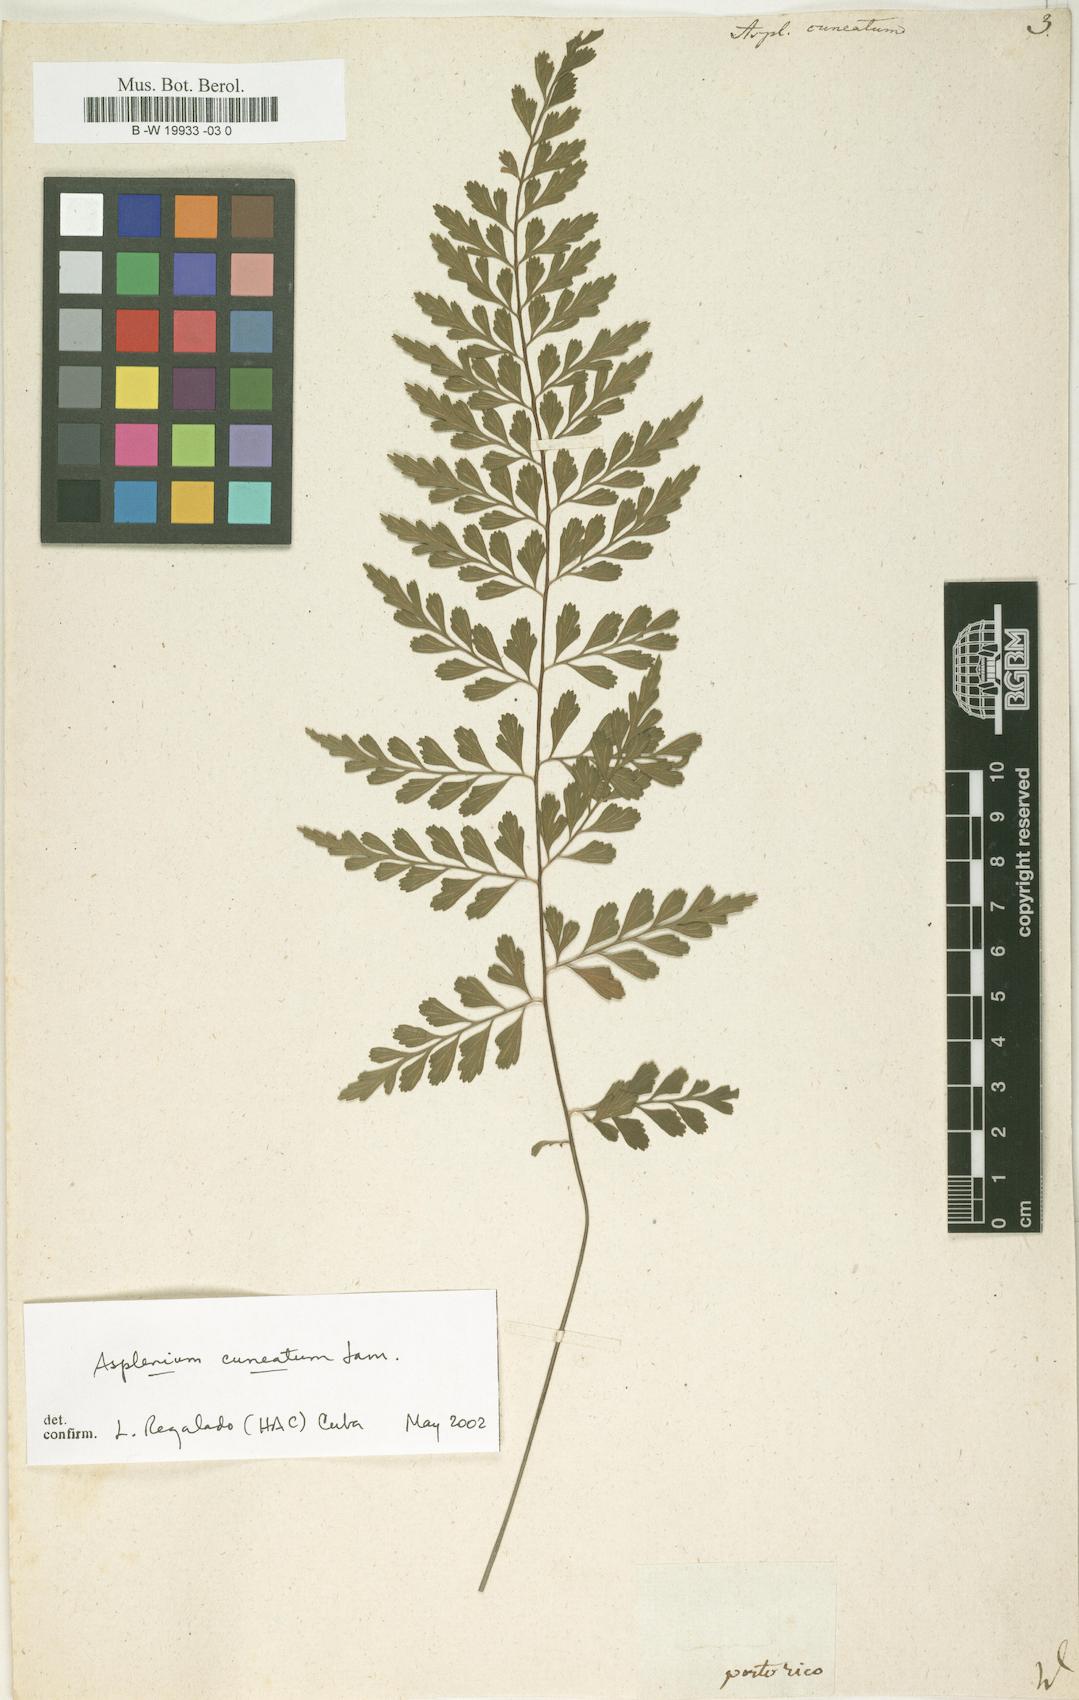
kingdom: Plantae
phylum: Tracheophyta
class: Polypodiopsida
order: Polypodiales
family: Aspleniaceae
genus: Asplenium
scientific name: Asplenium cuneatum
